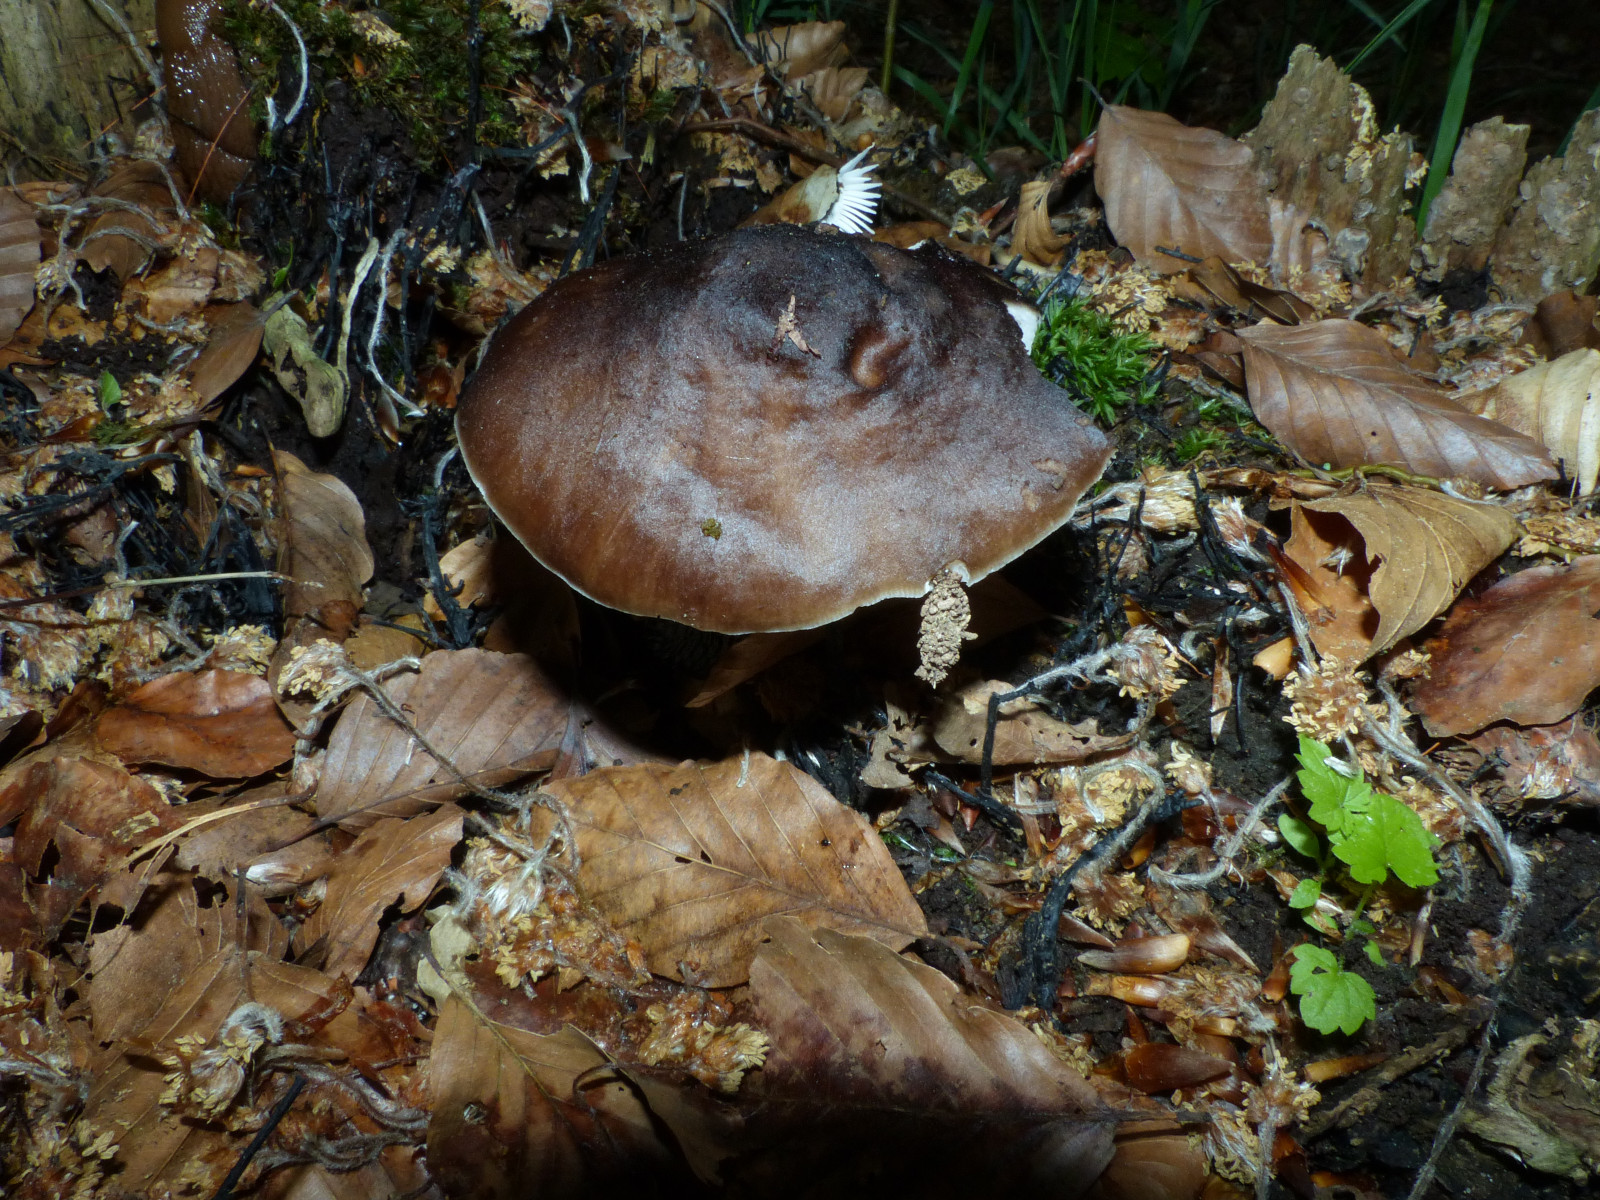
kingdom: Fungi
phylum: Basidiomycota
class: Agaricomycetes
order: Agaricales
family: Pluteaceae
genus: Pluteus
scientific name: Pluteus cervinus
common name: sodfarvet skærmhat
